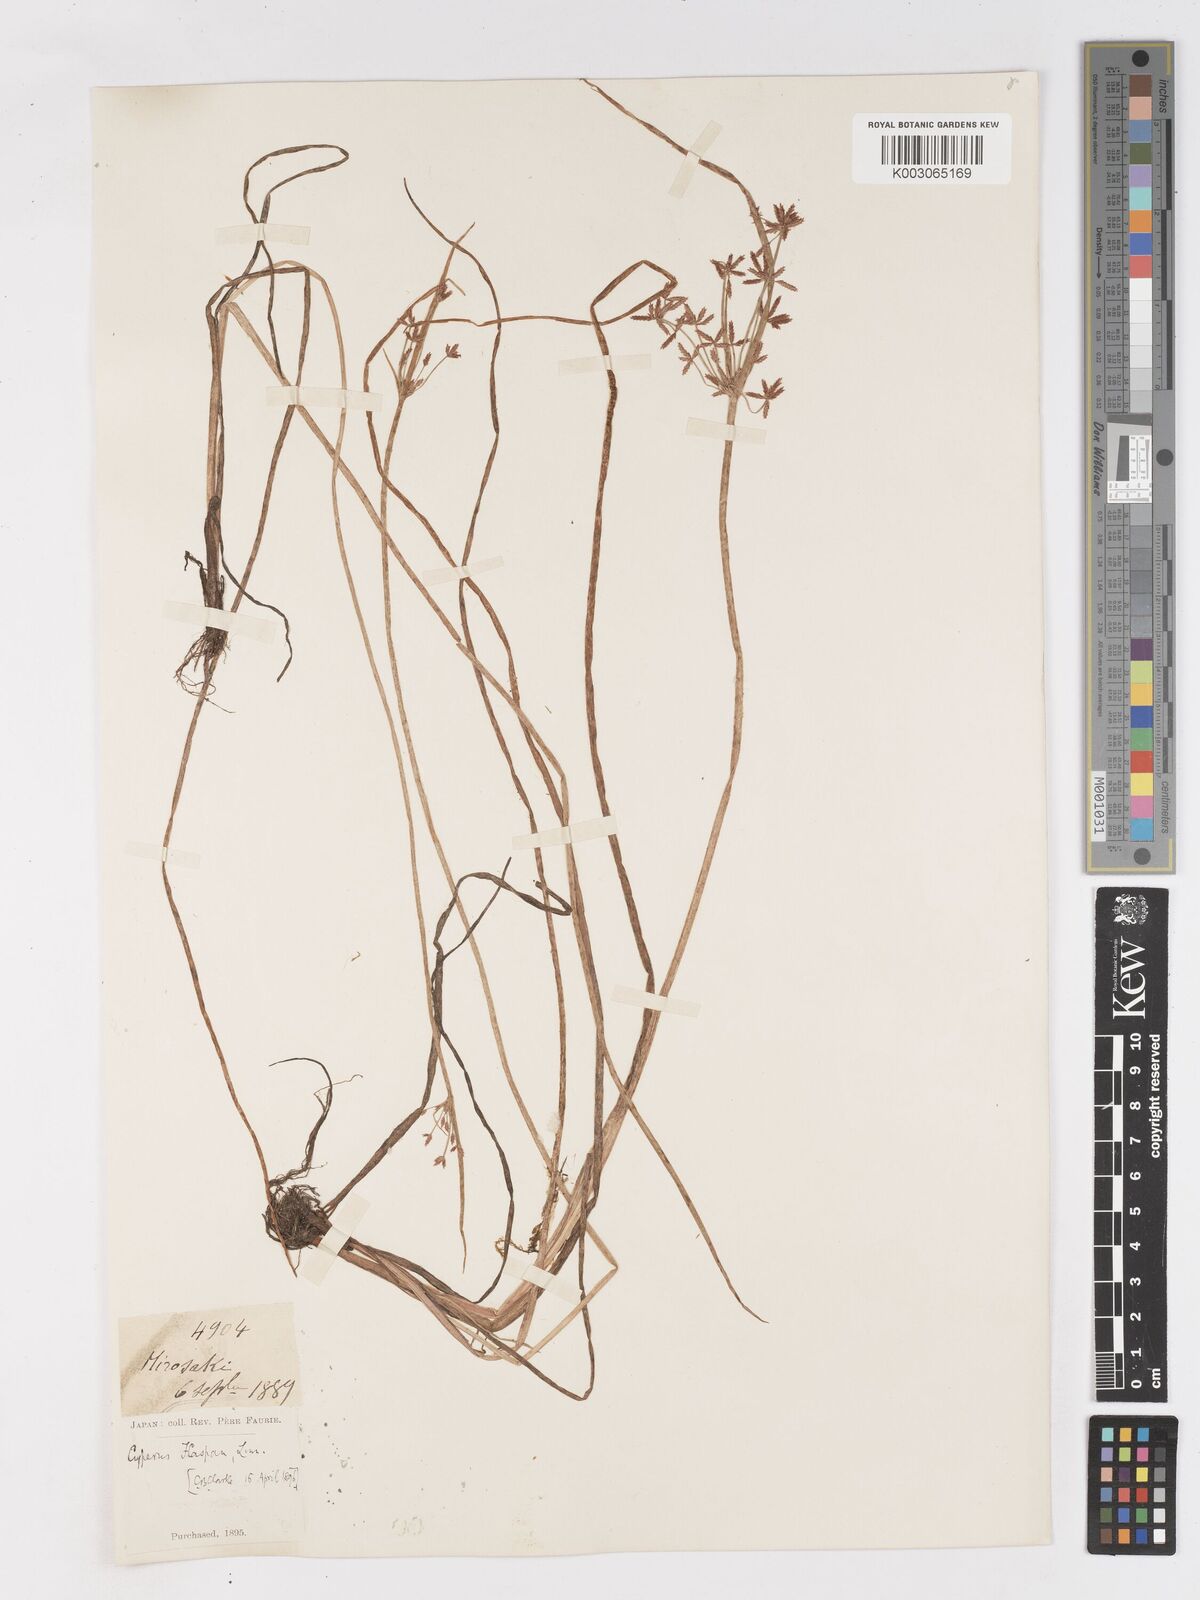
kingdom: Plantae
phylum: Tracheophyta
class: Liliopsida
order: Poales
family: Cyperaceae
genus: Cyperus
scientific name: Cyperus haspan
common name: Haspan flatsedge
